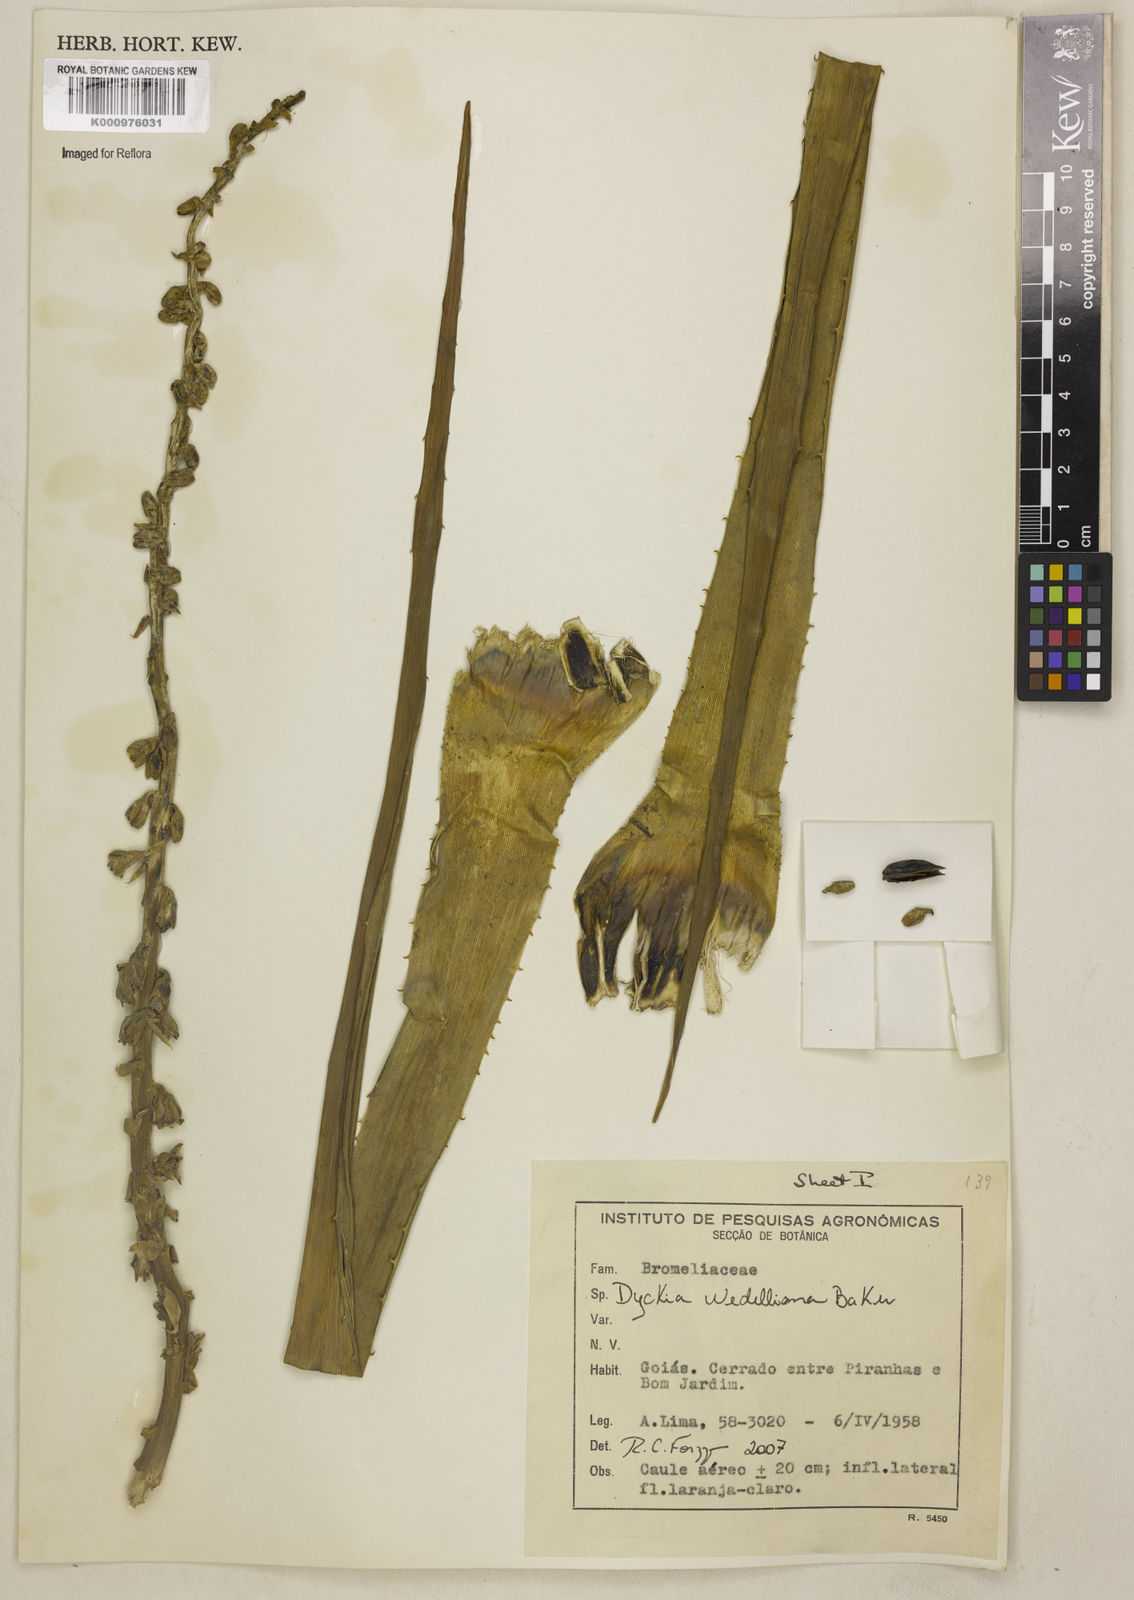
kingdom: Plantae
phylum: Tracheophyta
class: Liliopsida
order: Poales
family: Bromeliaceae
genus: Dyckia
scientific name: Dyckia weddelliana
